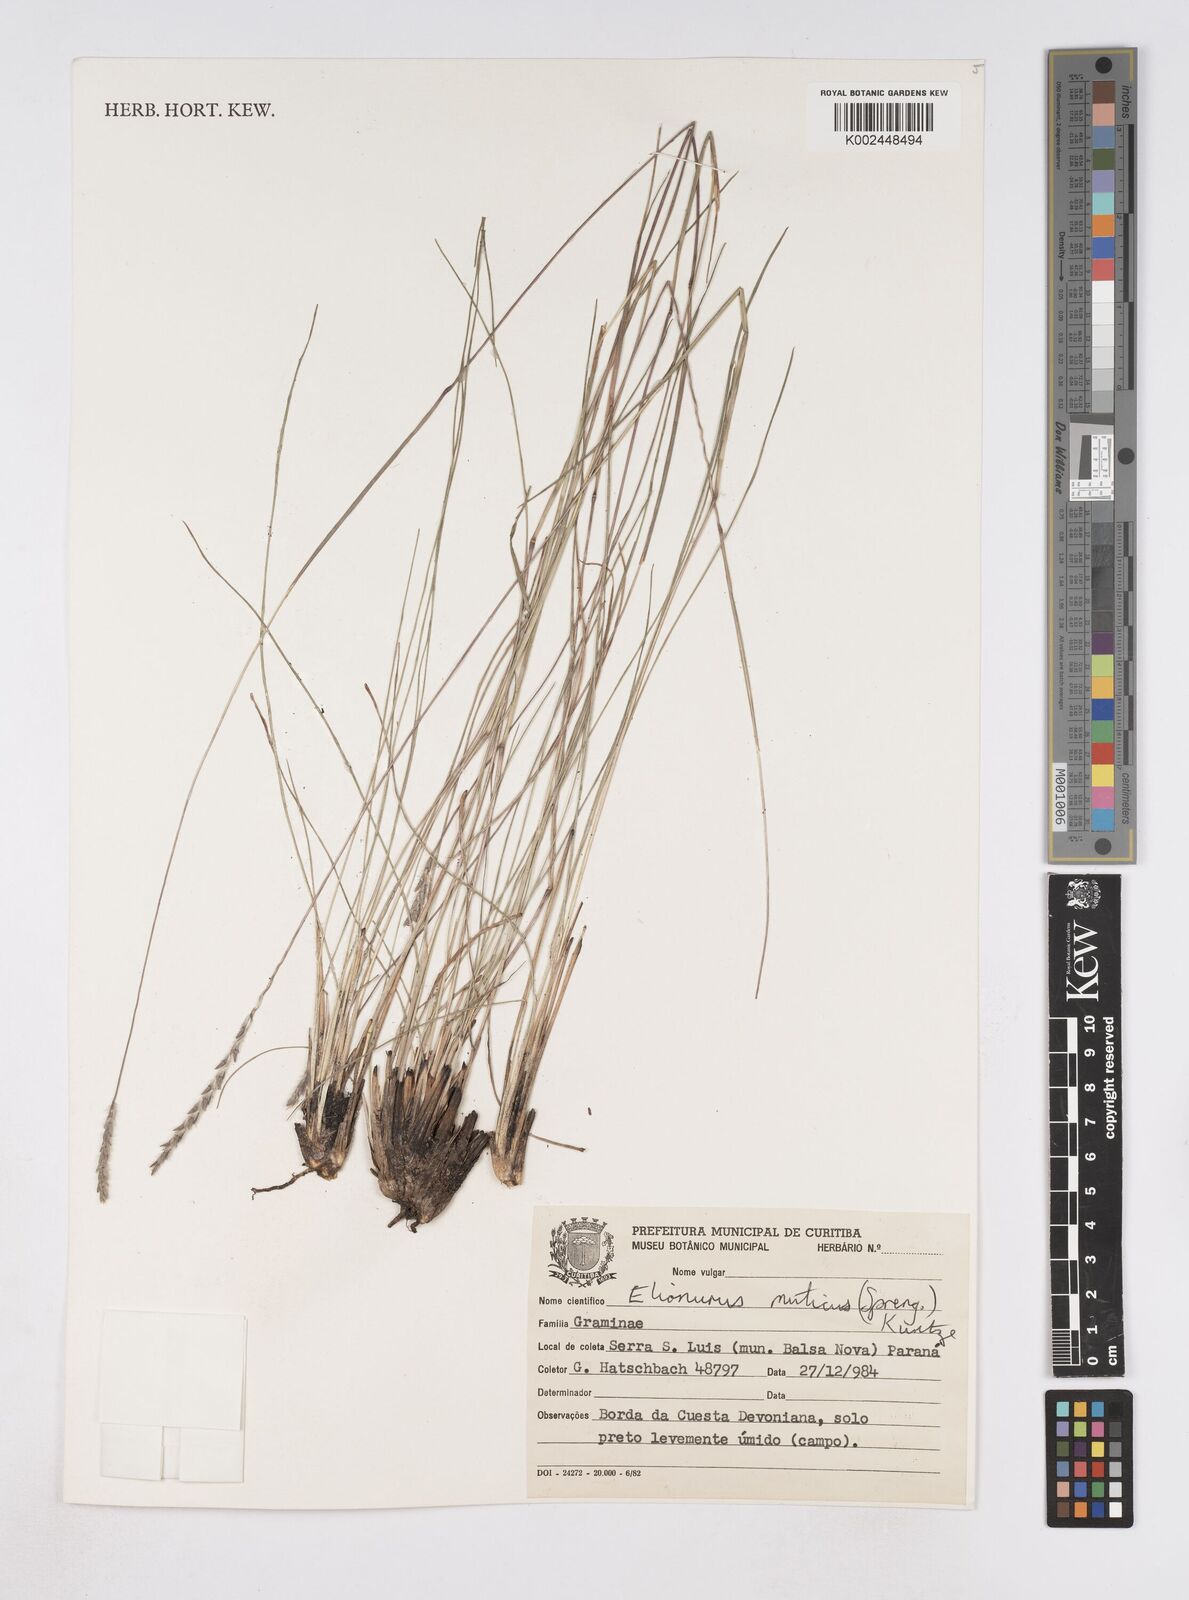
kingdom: Plantae
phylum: Tracheophyta
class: Liliopsida
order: Poales
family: Poaceae
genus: Elionurus
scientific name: Elionurus muticus
